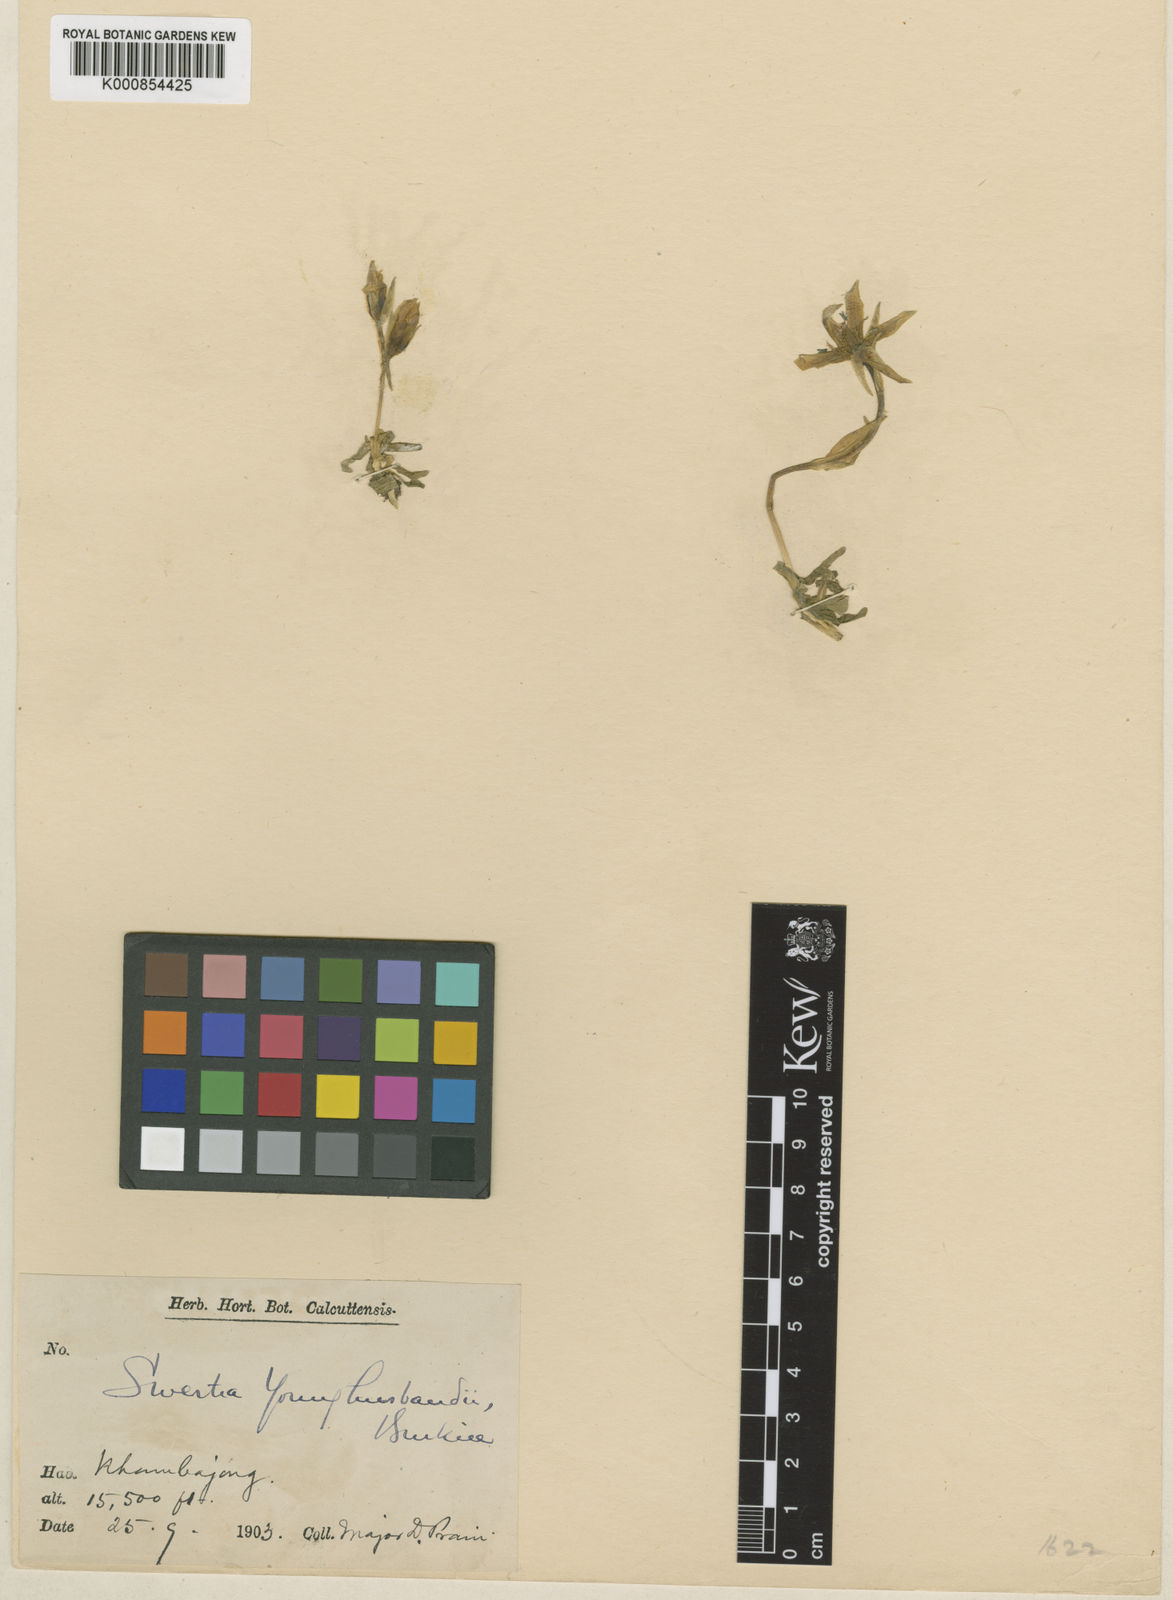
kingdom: Plantae
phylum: Tracheophyta
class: Magnoliopsida
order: Gentianales
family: Gentianaceae
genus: Swertia
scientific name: Swertia younghusbandii
